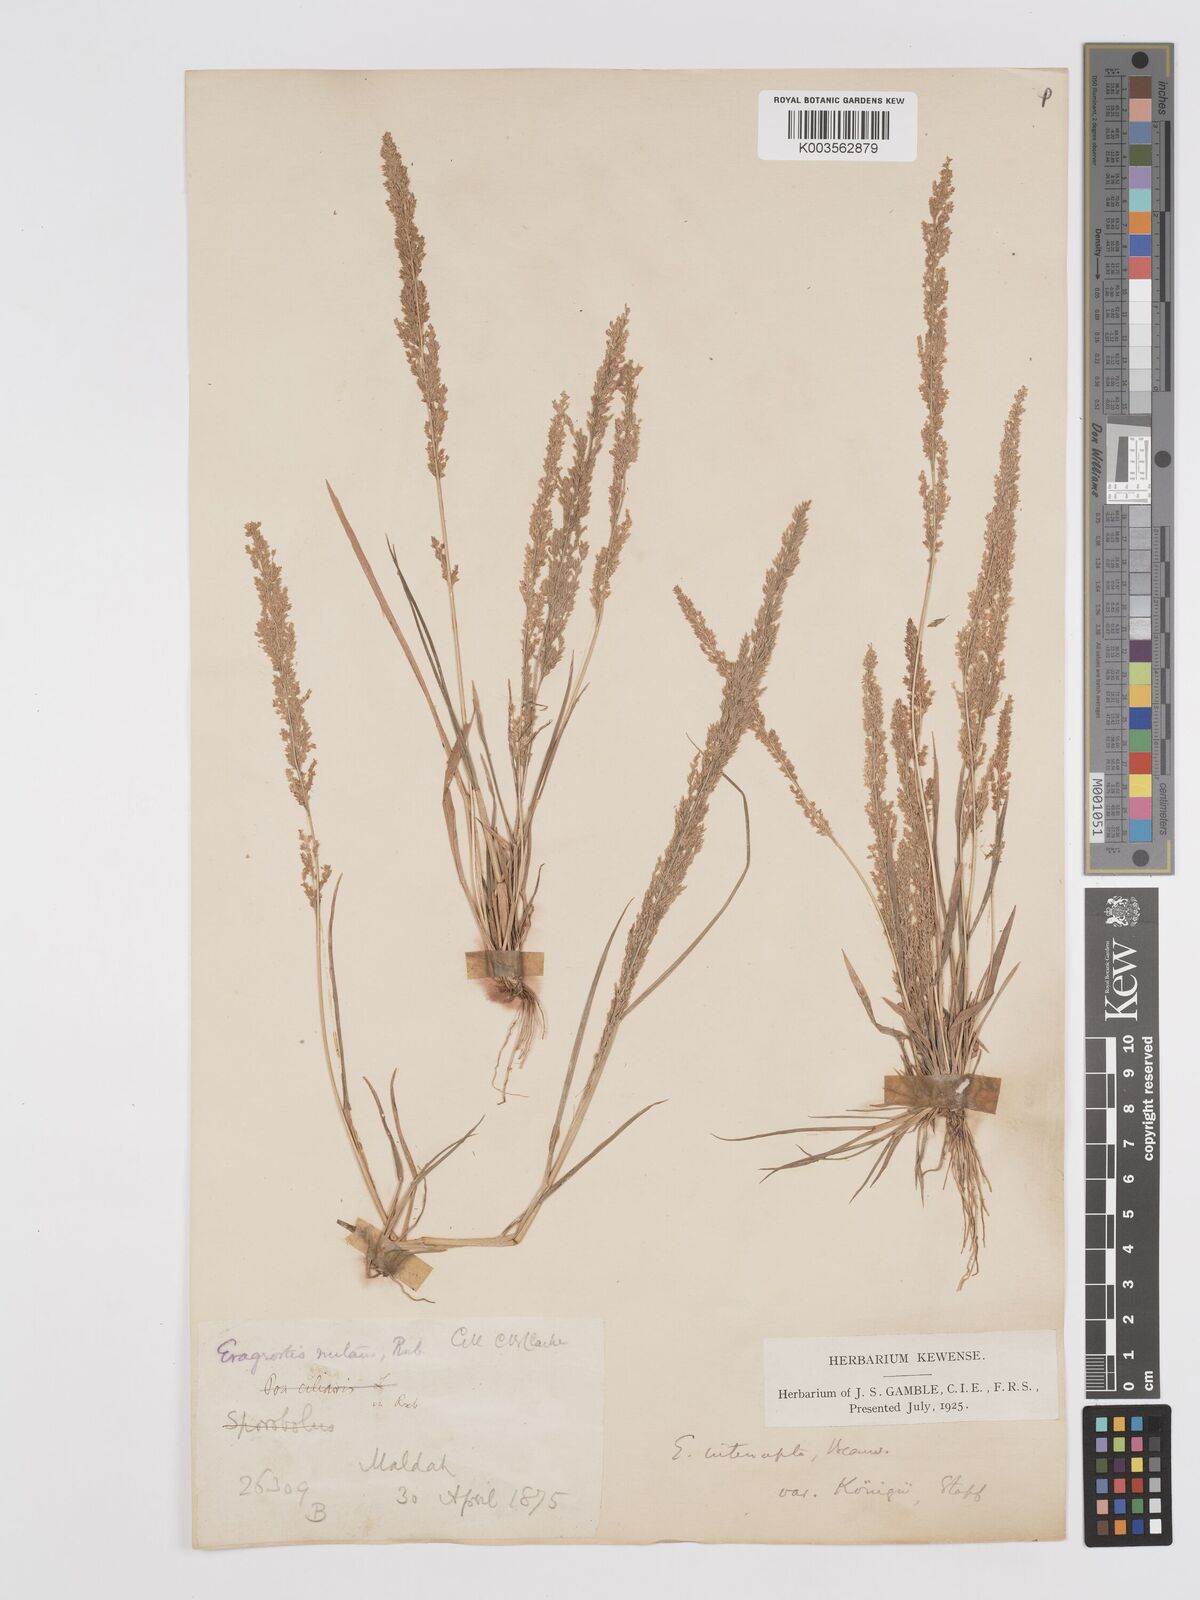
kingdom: Plantae
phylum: Tracheophyta
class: Liliopsida
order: Poales
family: Poaceae
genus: Eragrostis
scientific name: Eragrostis japonica
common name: Pond lovegrass
